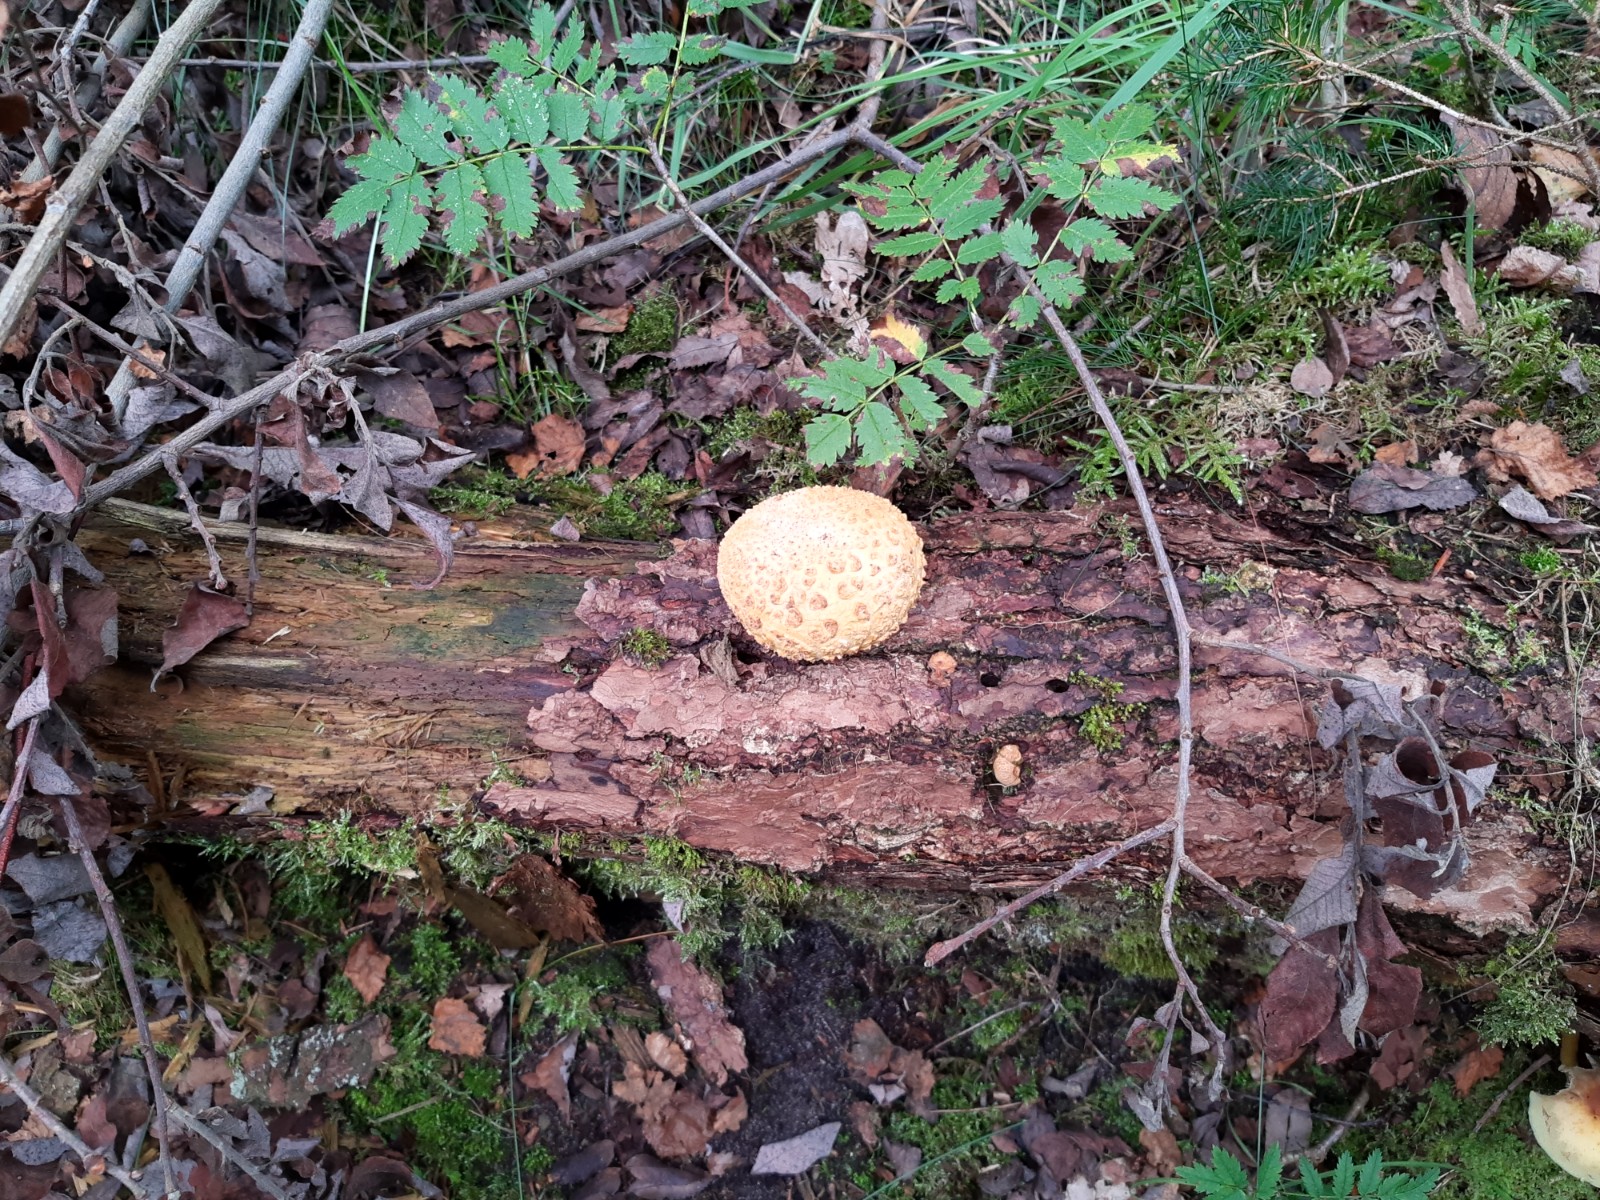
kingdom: Fungi
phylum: Basidiomycota
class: Agaricomycetes
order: Boletales
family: Sclerodermataceae
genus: Scleroderma
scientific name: Scleroderma citrinum
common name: almindelig bruskbold
